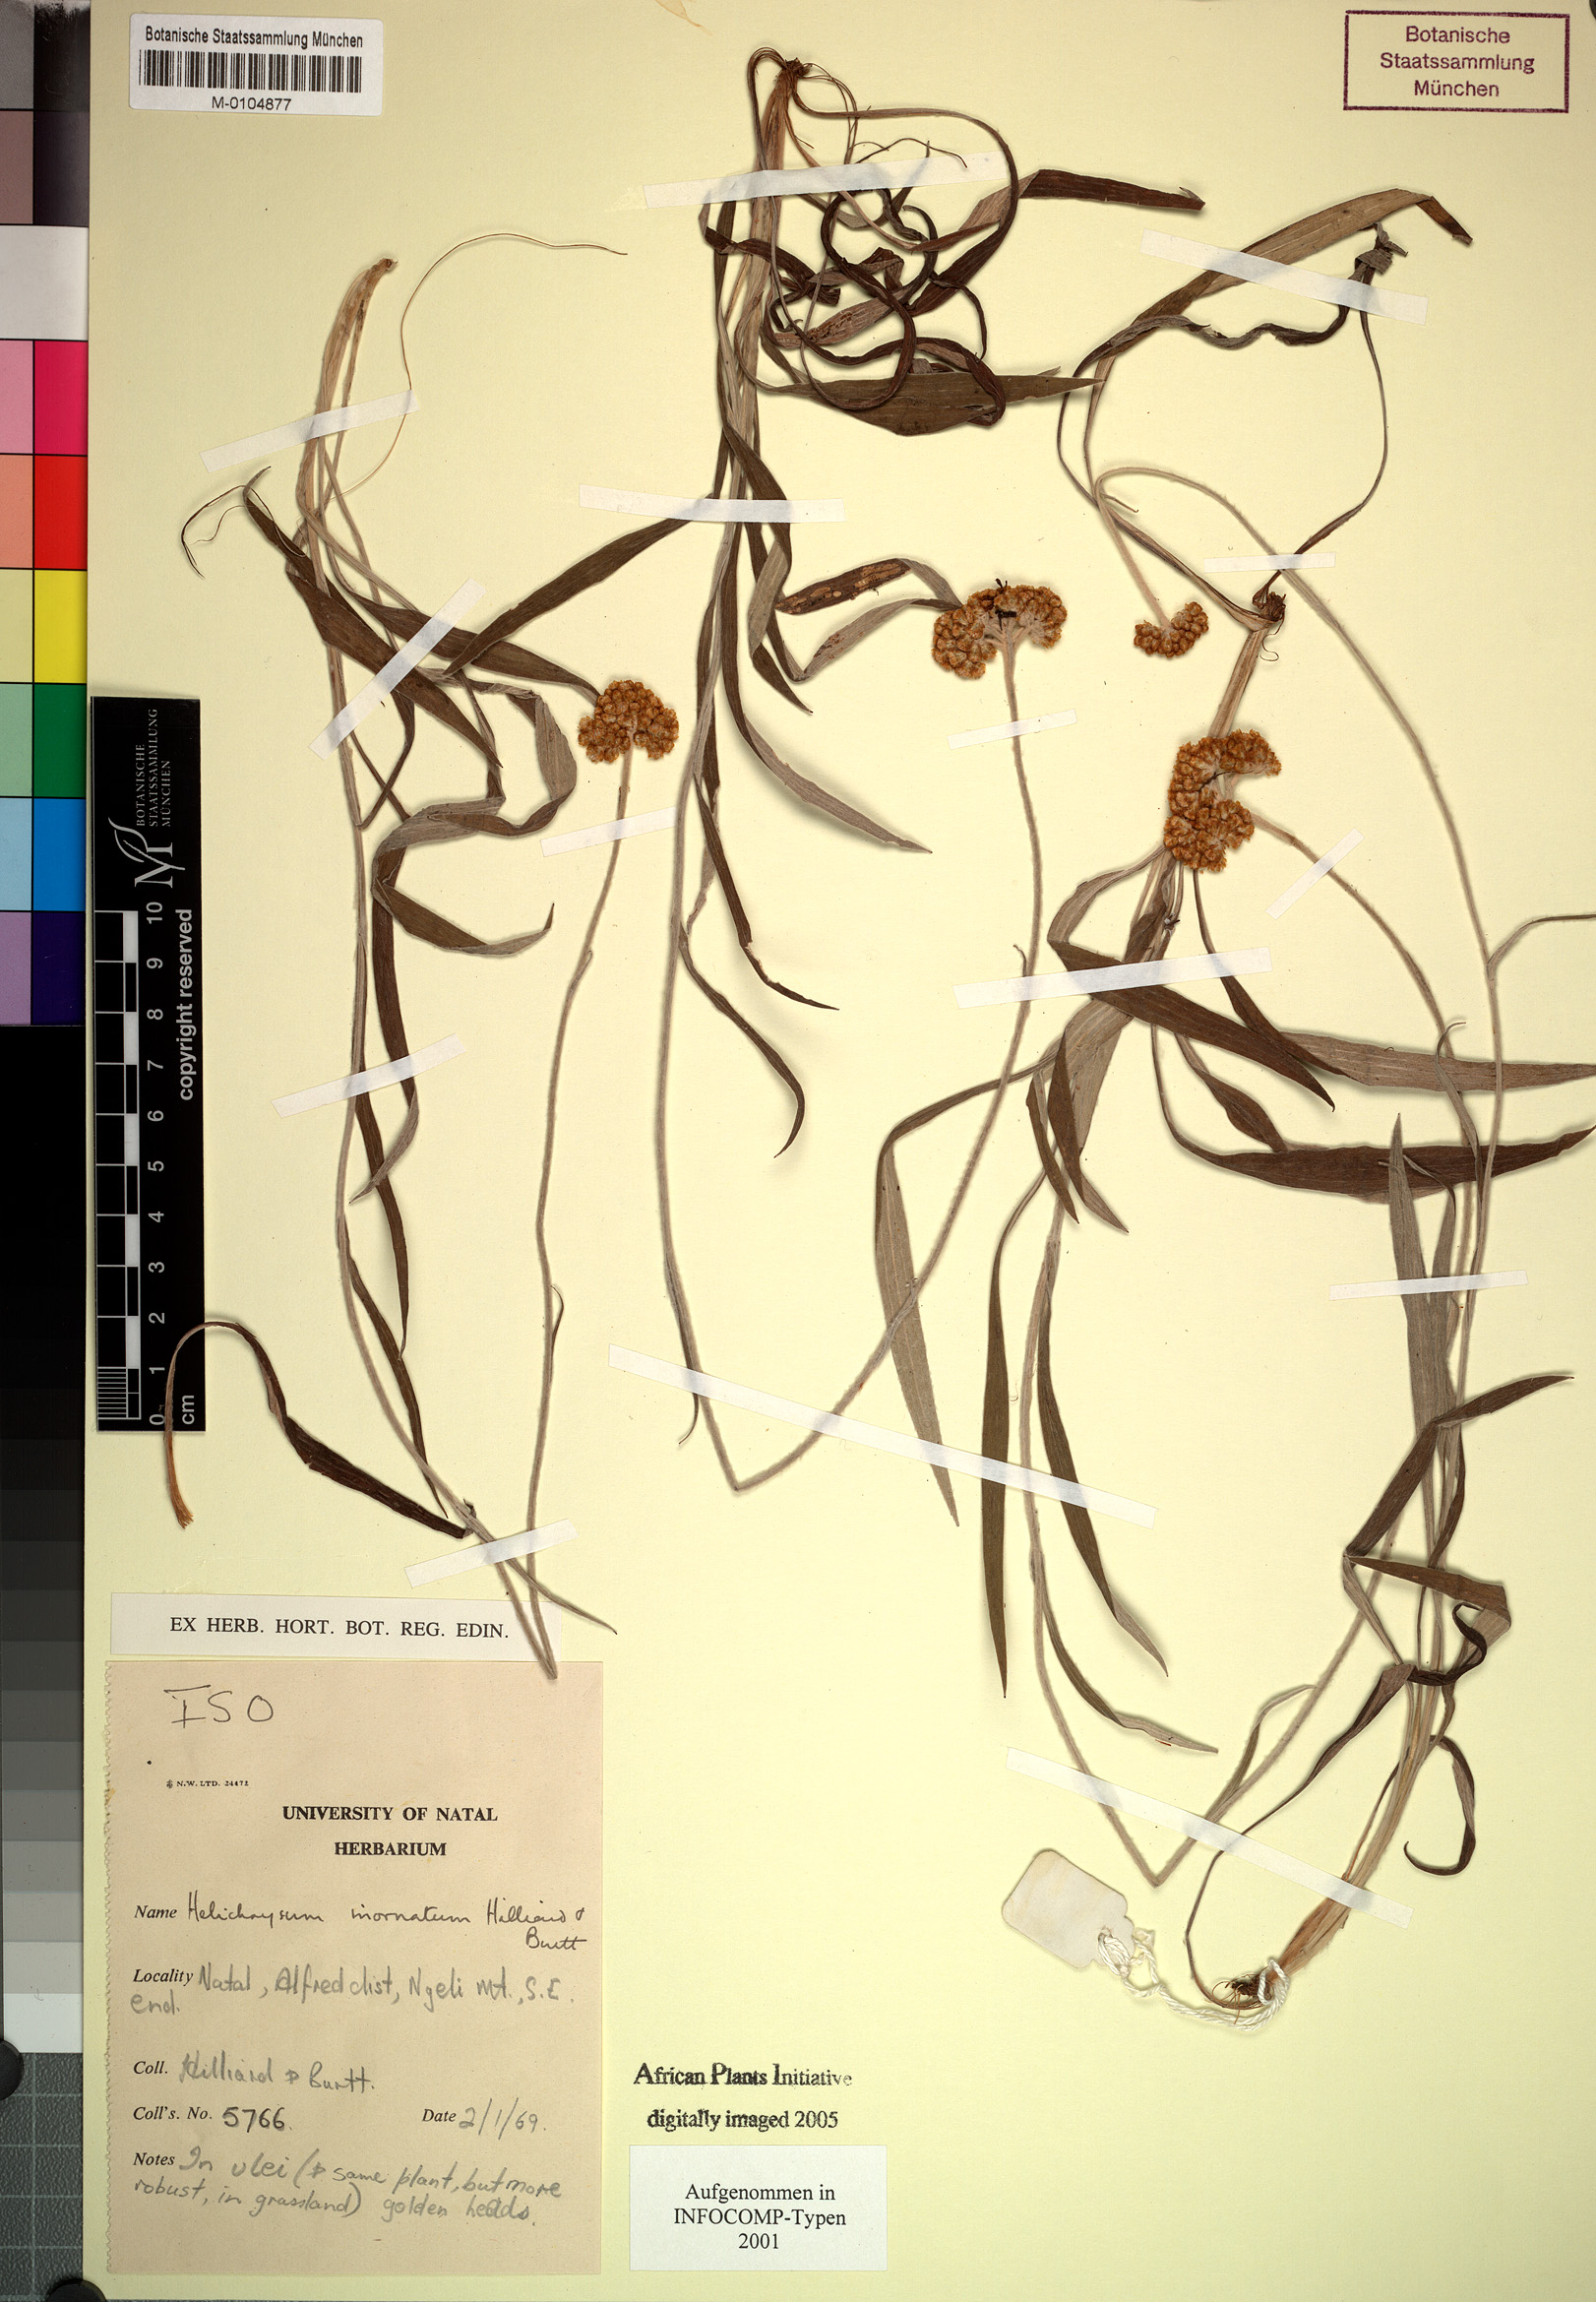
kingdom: Plantae
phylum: Tracheophyta
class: Magnoliopsida
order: Asterales
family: Asteraceae
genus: Helichrysum
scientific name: Helichrysum inornatum
